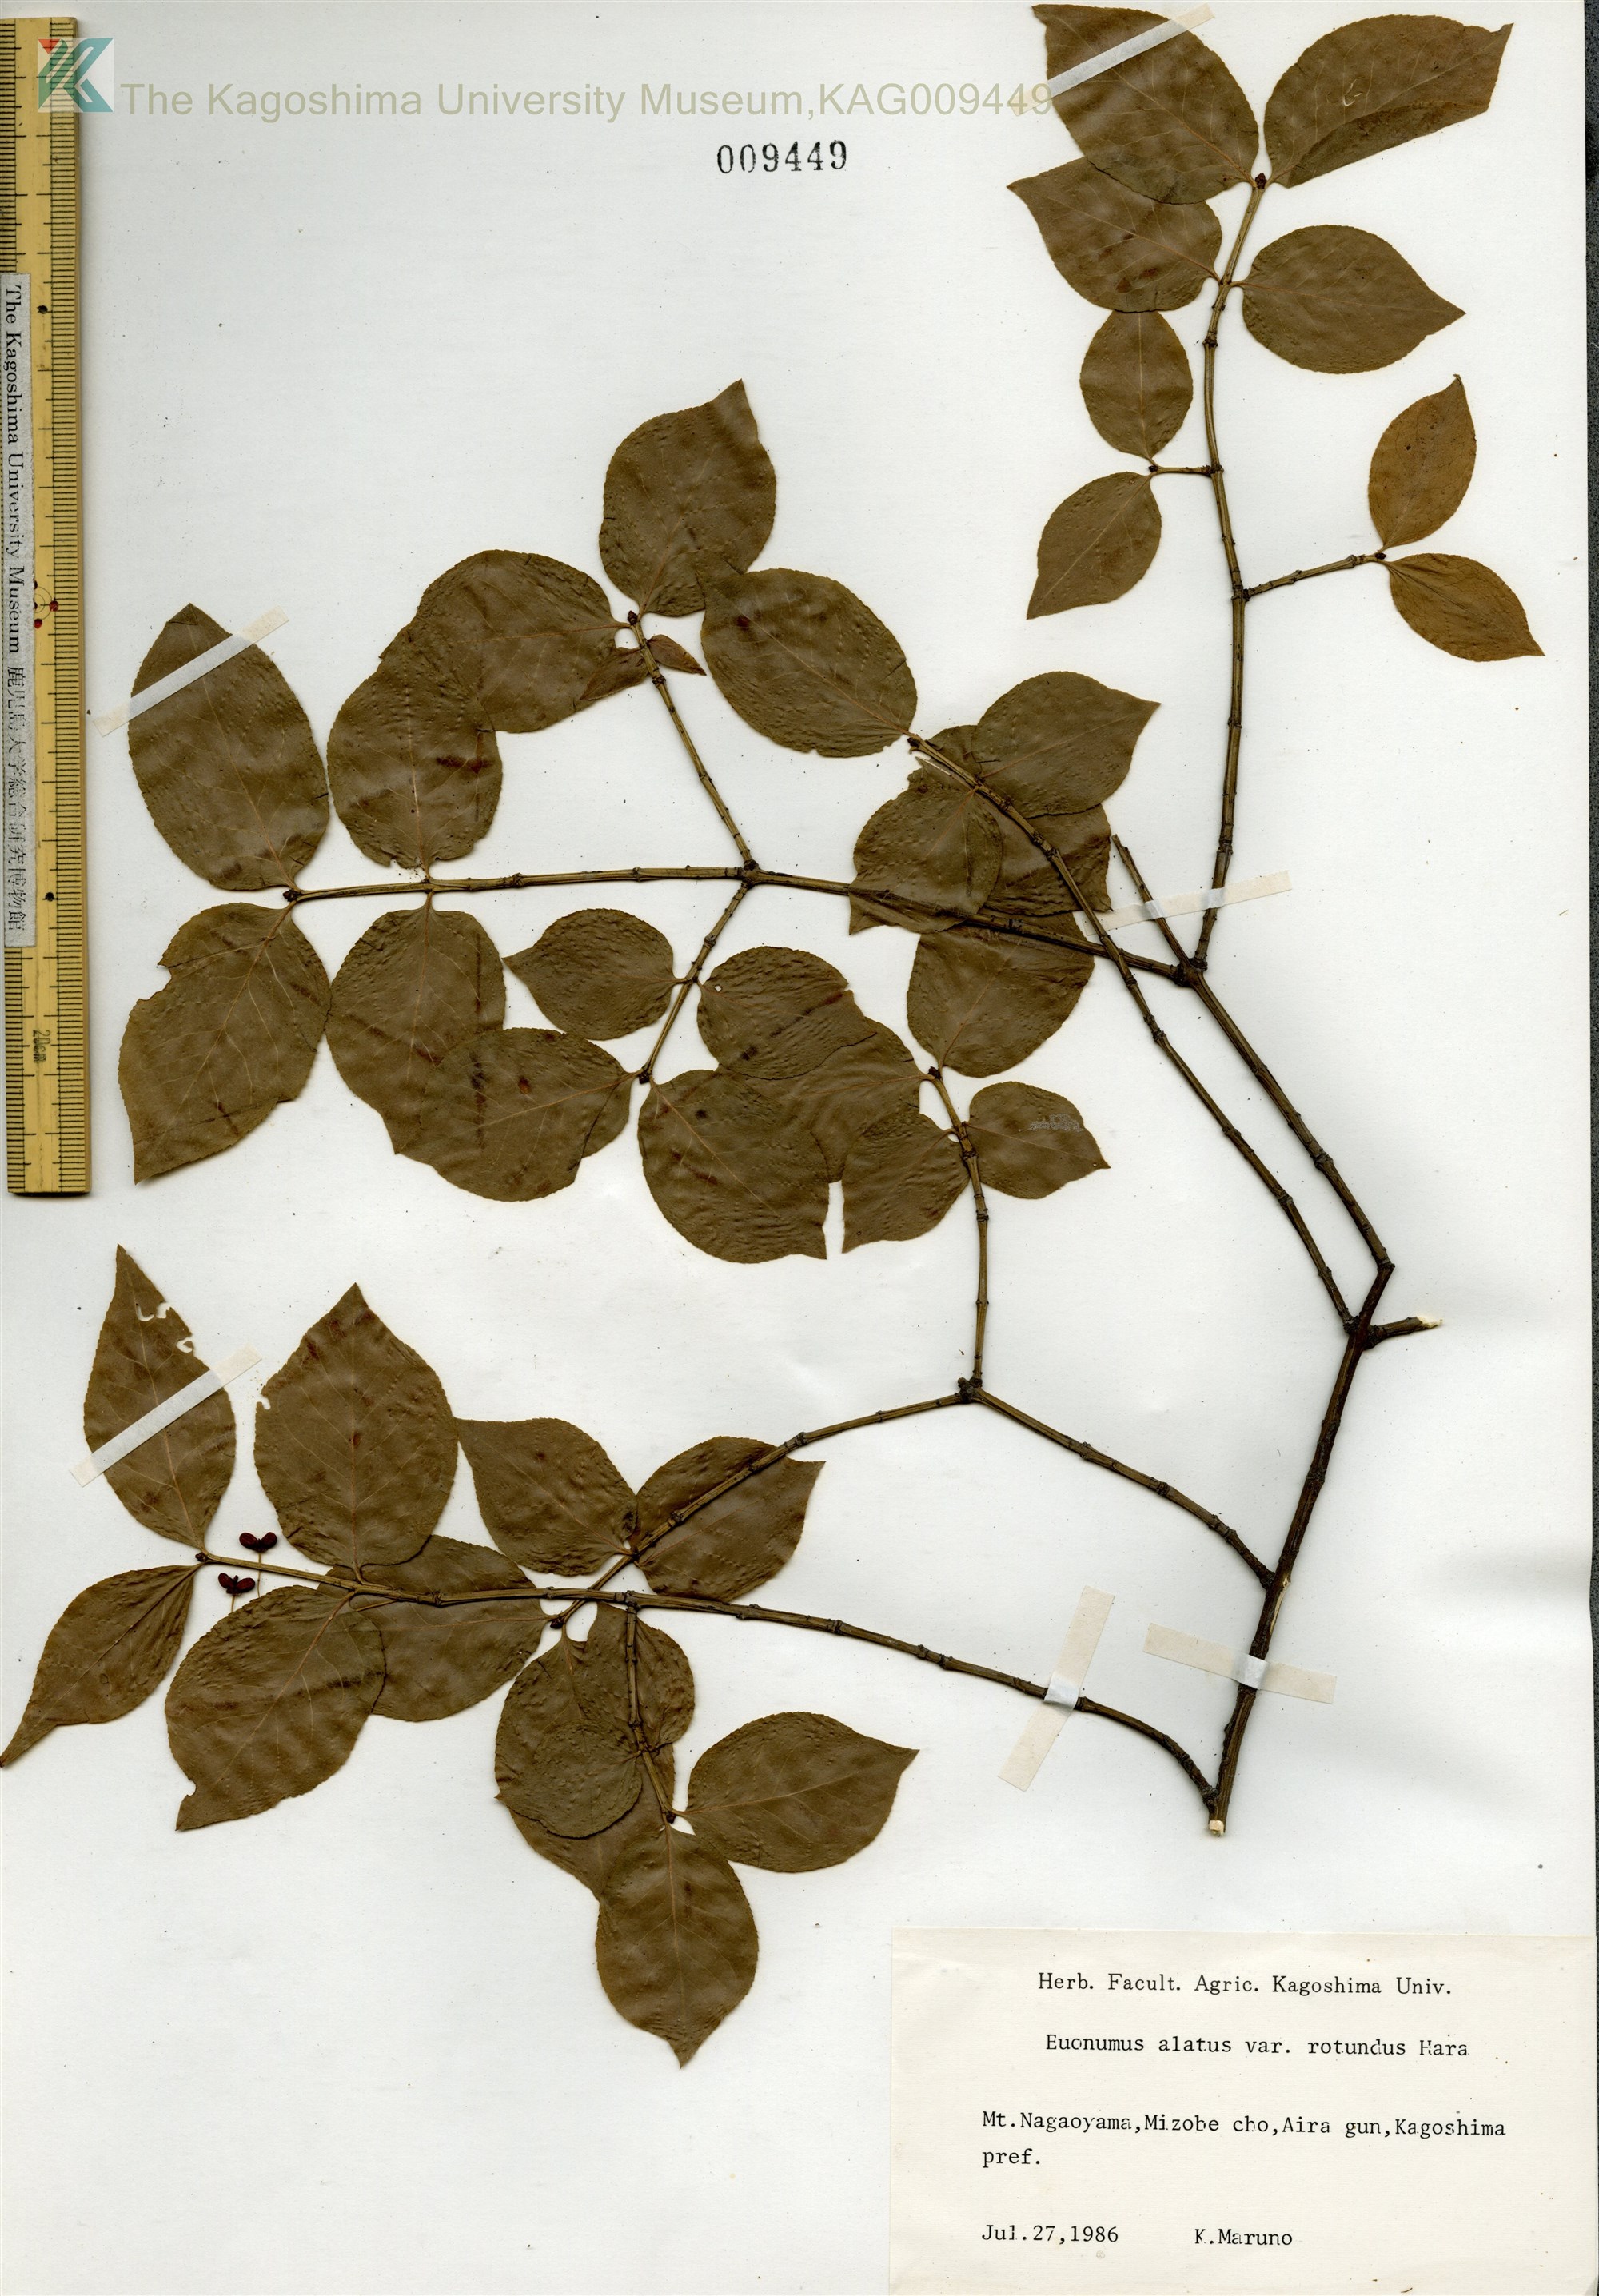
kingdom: Plantae
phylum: Tracheophyta
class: Magnoliopsida
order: Celastrales
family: Celastraceae
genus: Euonymus
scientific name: Euonymus alatus
